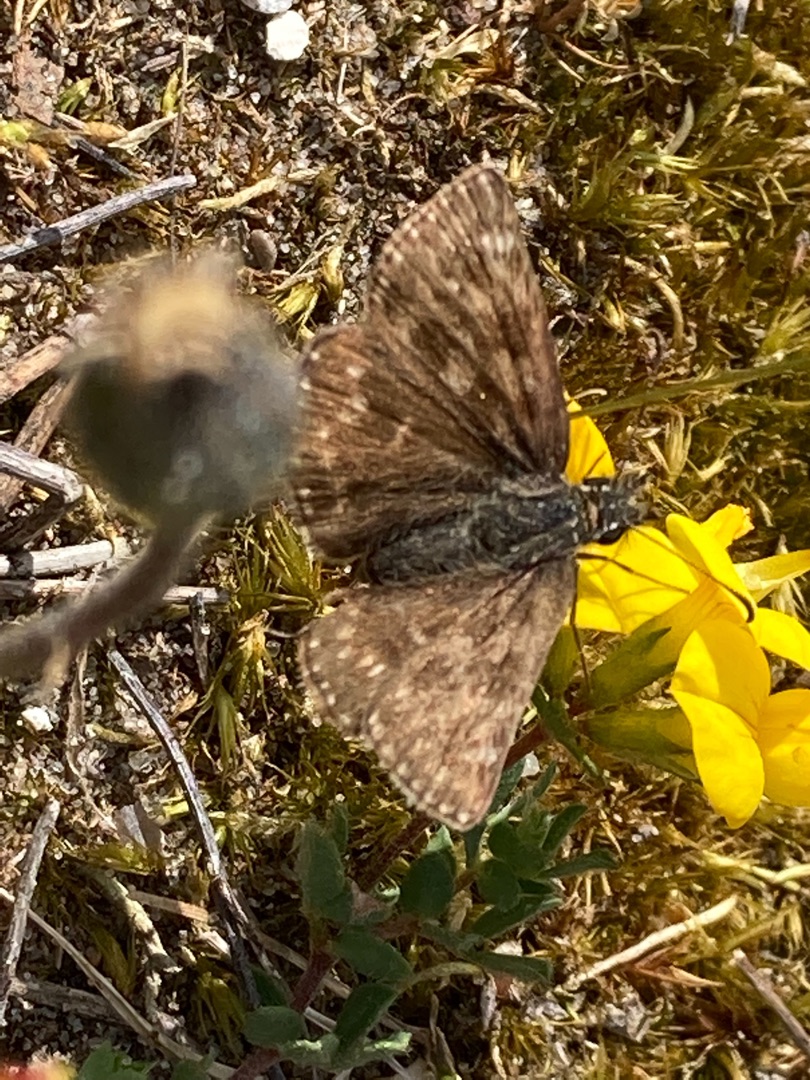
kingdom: Animalia
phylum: Arthropoda
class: Insecta
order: Lepidoptera
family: Hesperiidae
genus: Erynnis
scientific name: Erynnis tages
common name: Gråbåndet bredpande
